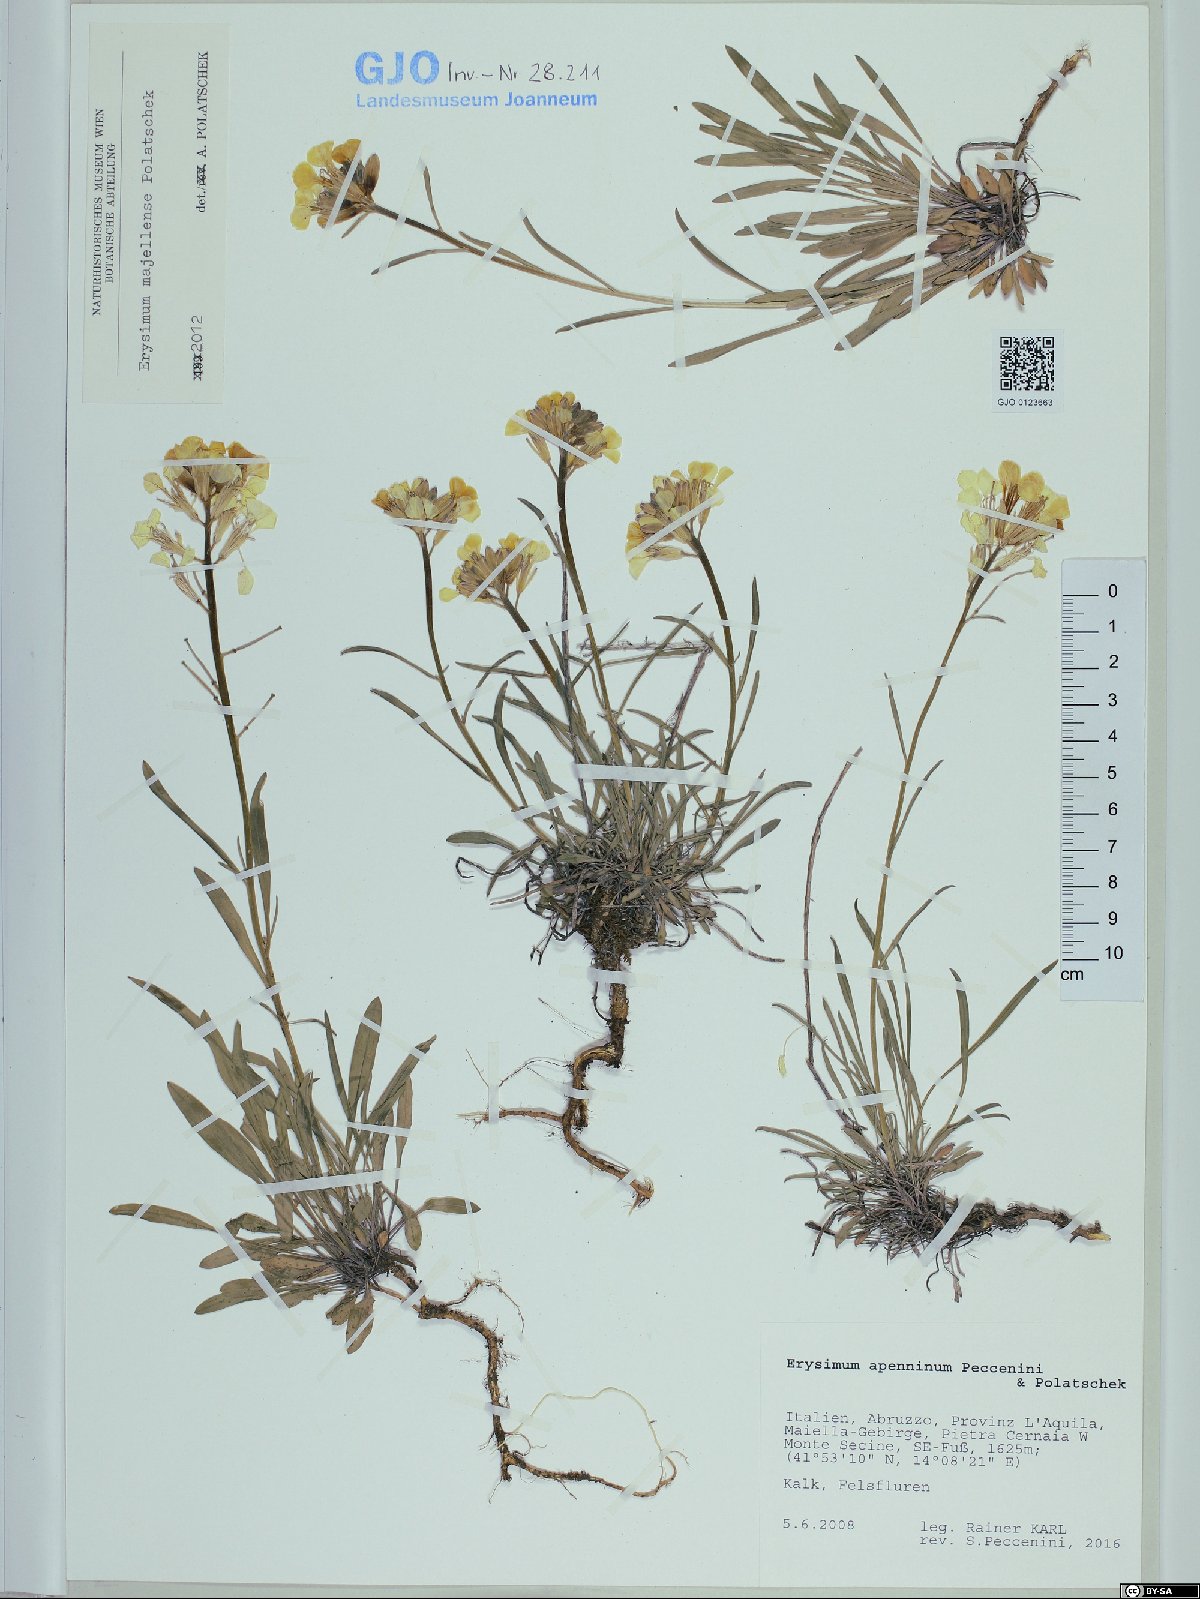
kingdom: Plantae
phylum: Tracheophyta
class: Magnoliopsida
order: Brassicales
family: Brassicaceae
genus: Erysimum
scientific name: Erysimum apenninum
